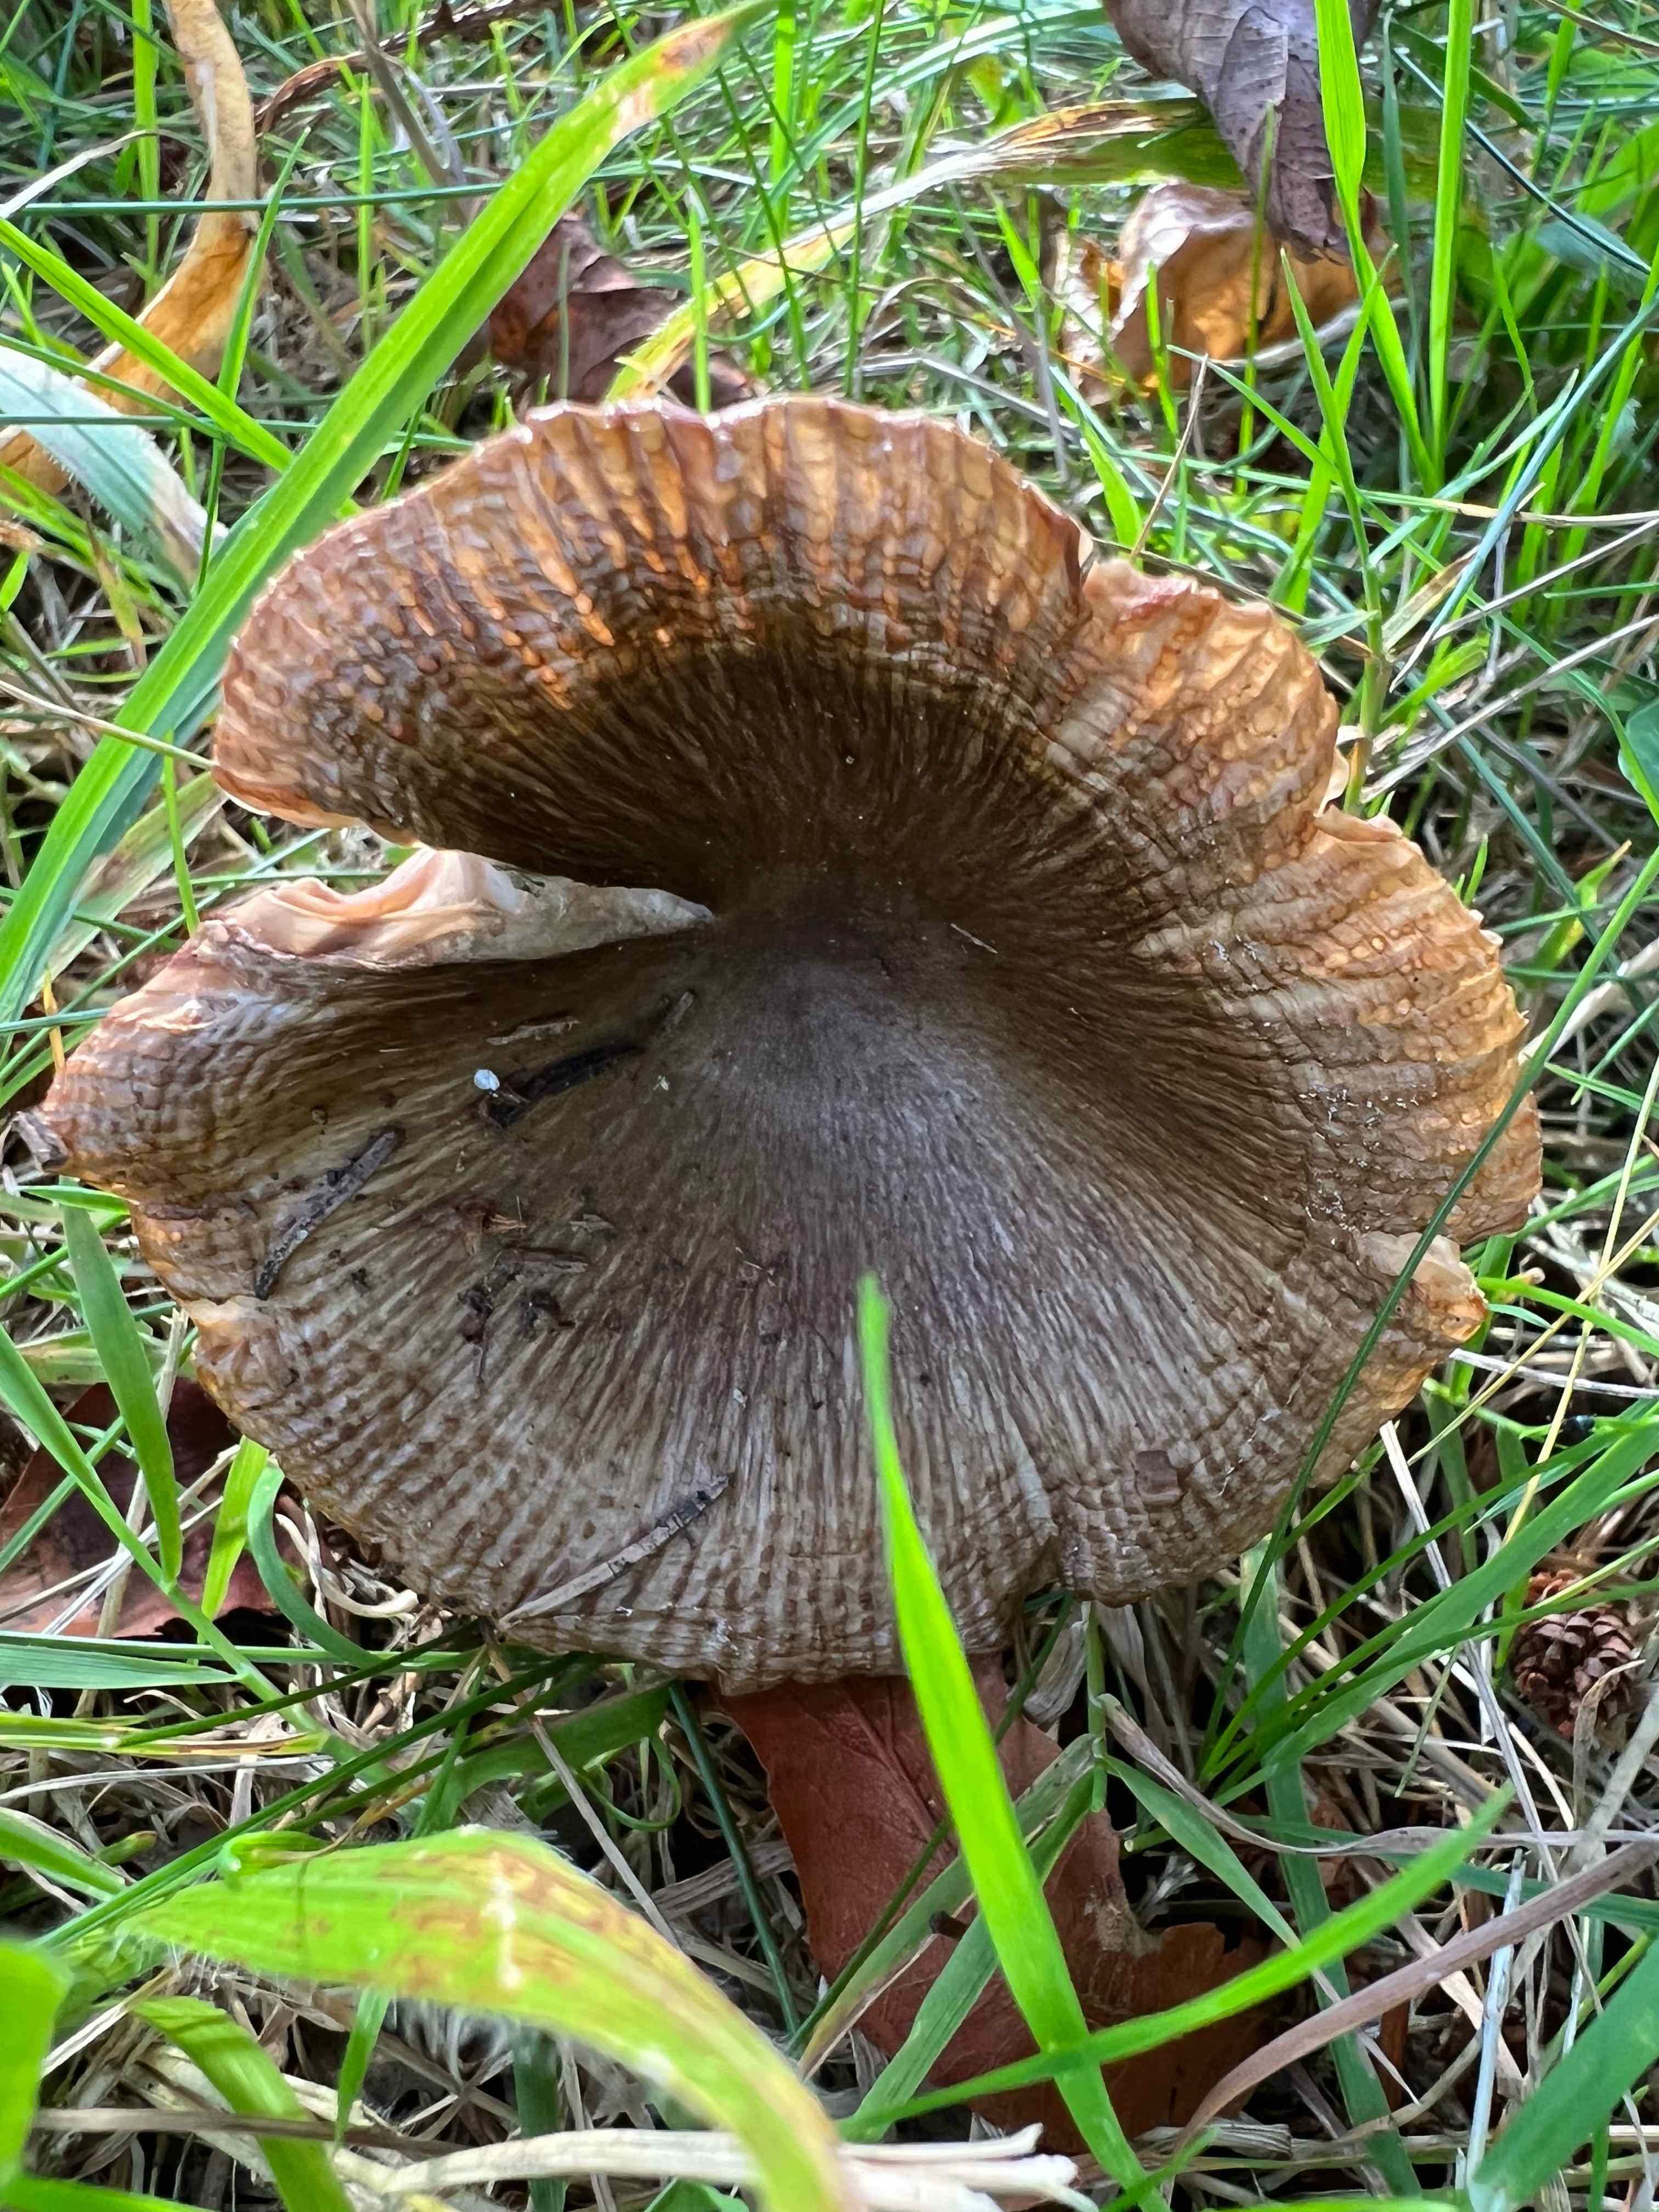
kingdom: Fungi
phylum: Basidiomycota
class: Agaricomycetes
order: Russulales
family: Russulaceae
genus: Russula
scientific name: Russula
